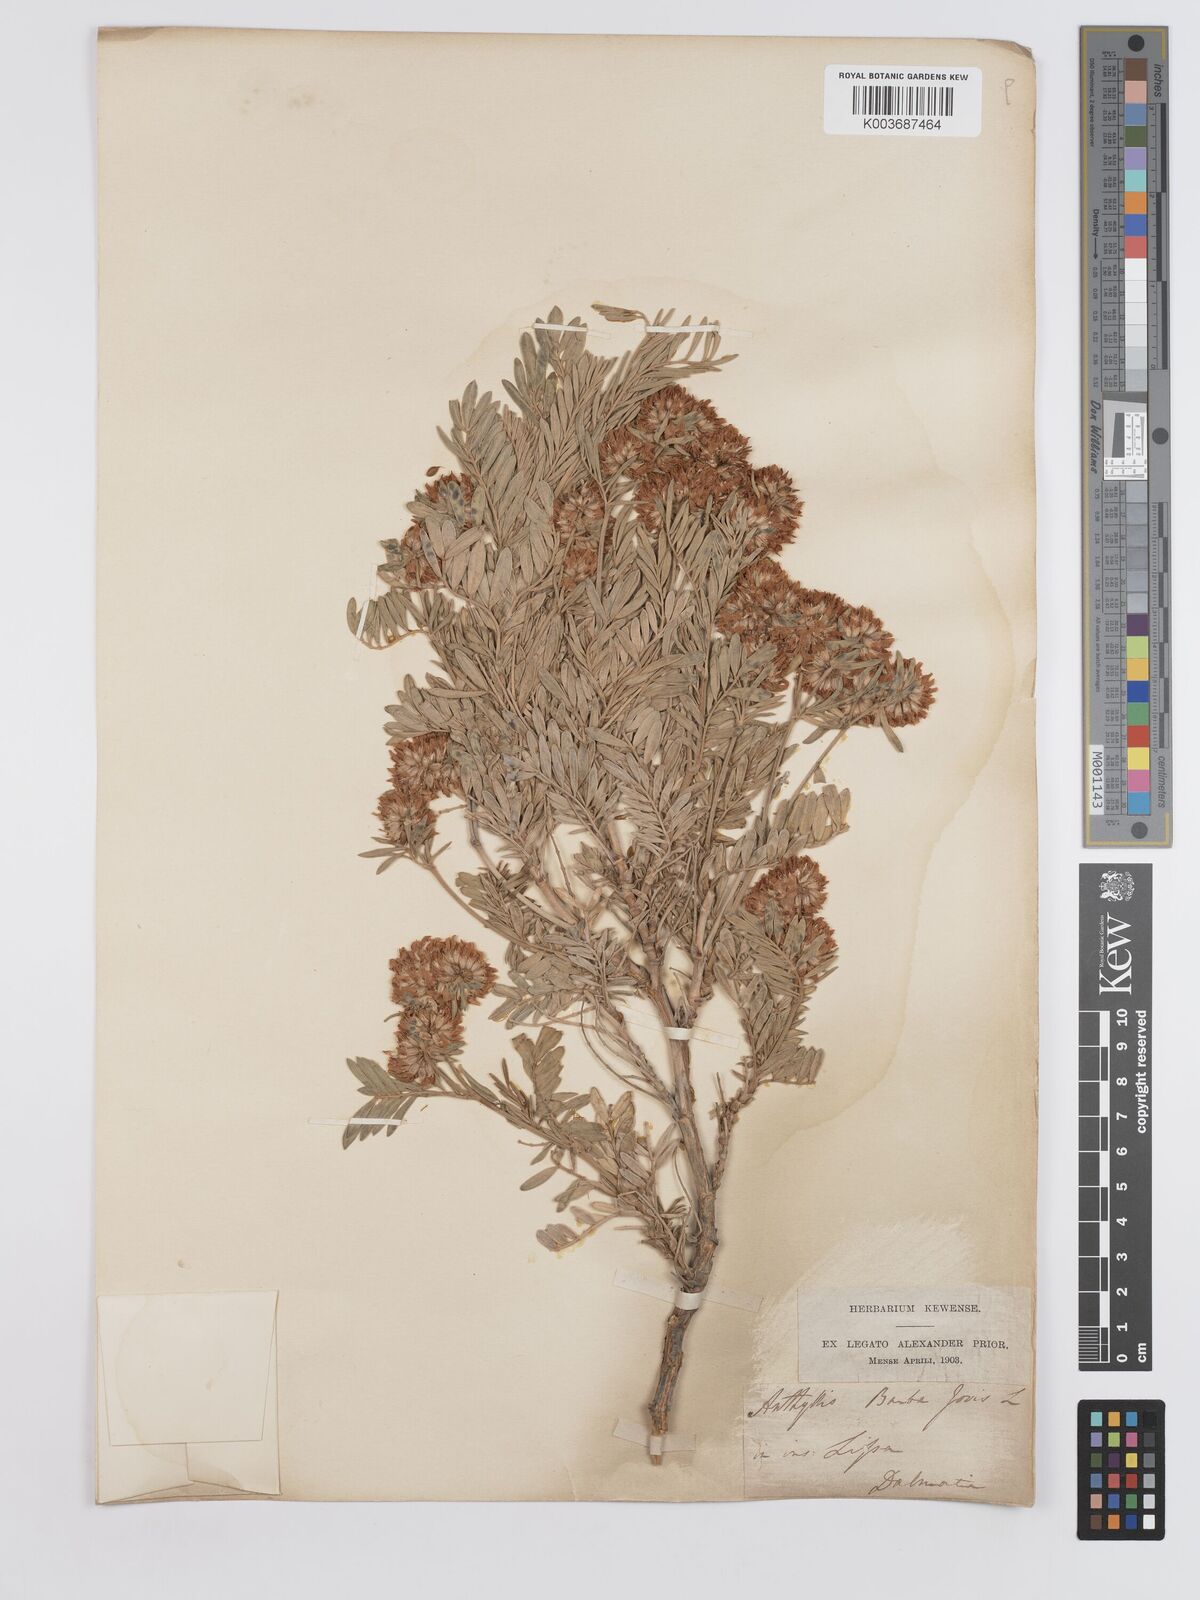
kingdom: Plantae
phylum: Tracheophyta
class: Magnoliopsida
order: Fabales
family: Fabaceae
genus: Anthyllis
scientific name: Anthyllis barba-jovis
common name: Jupiter's-beard
